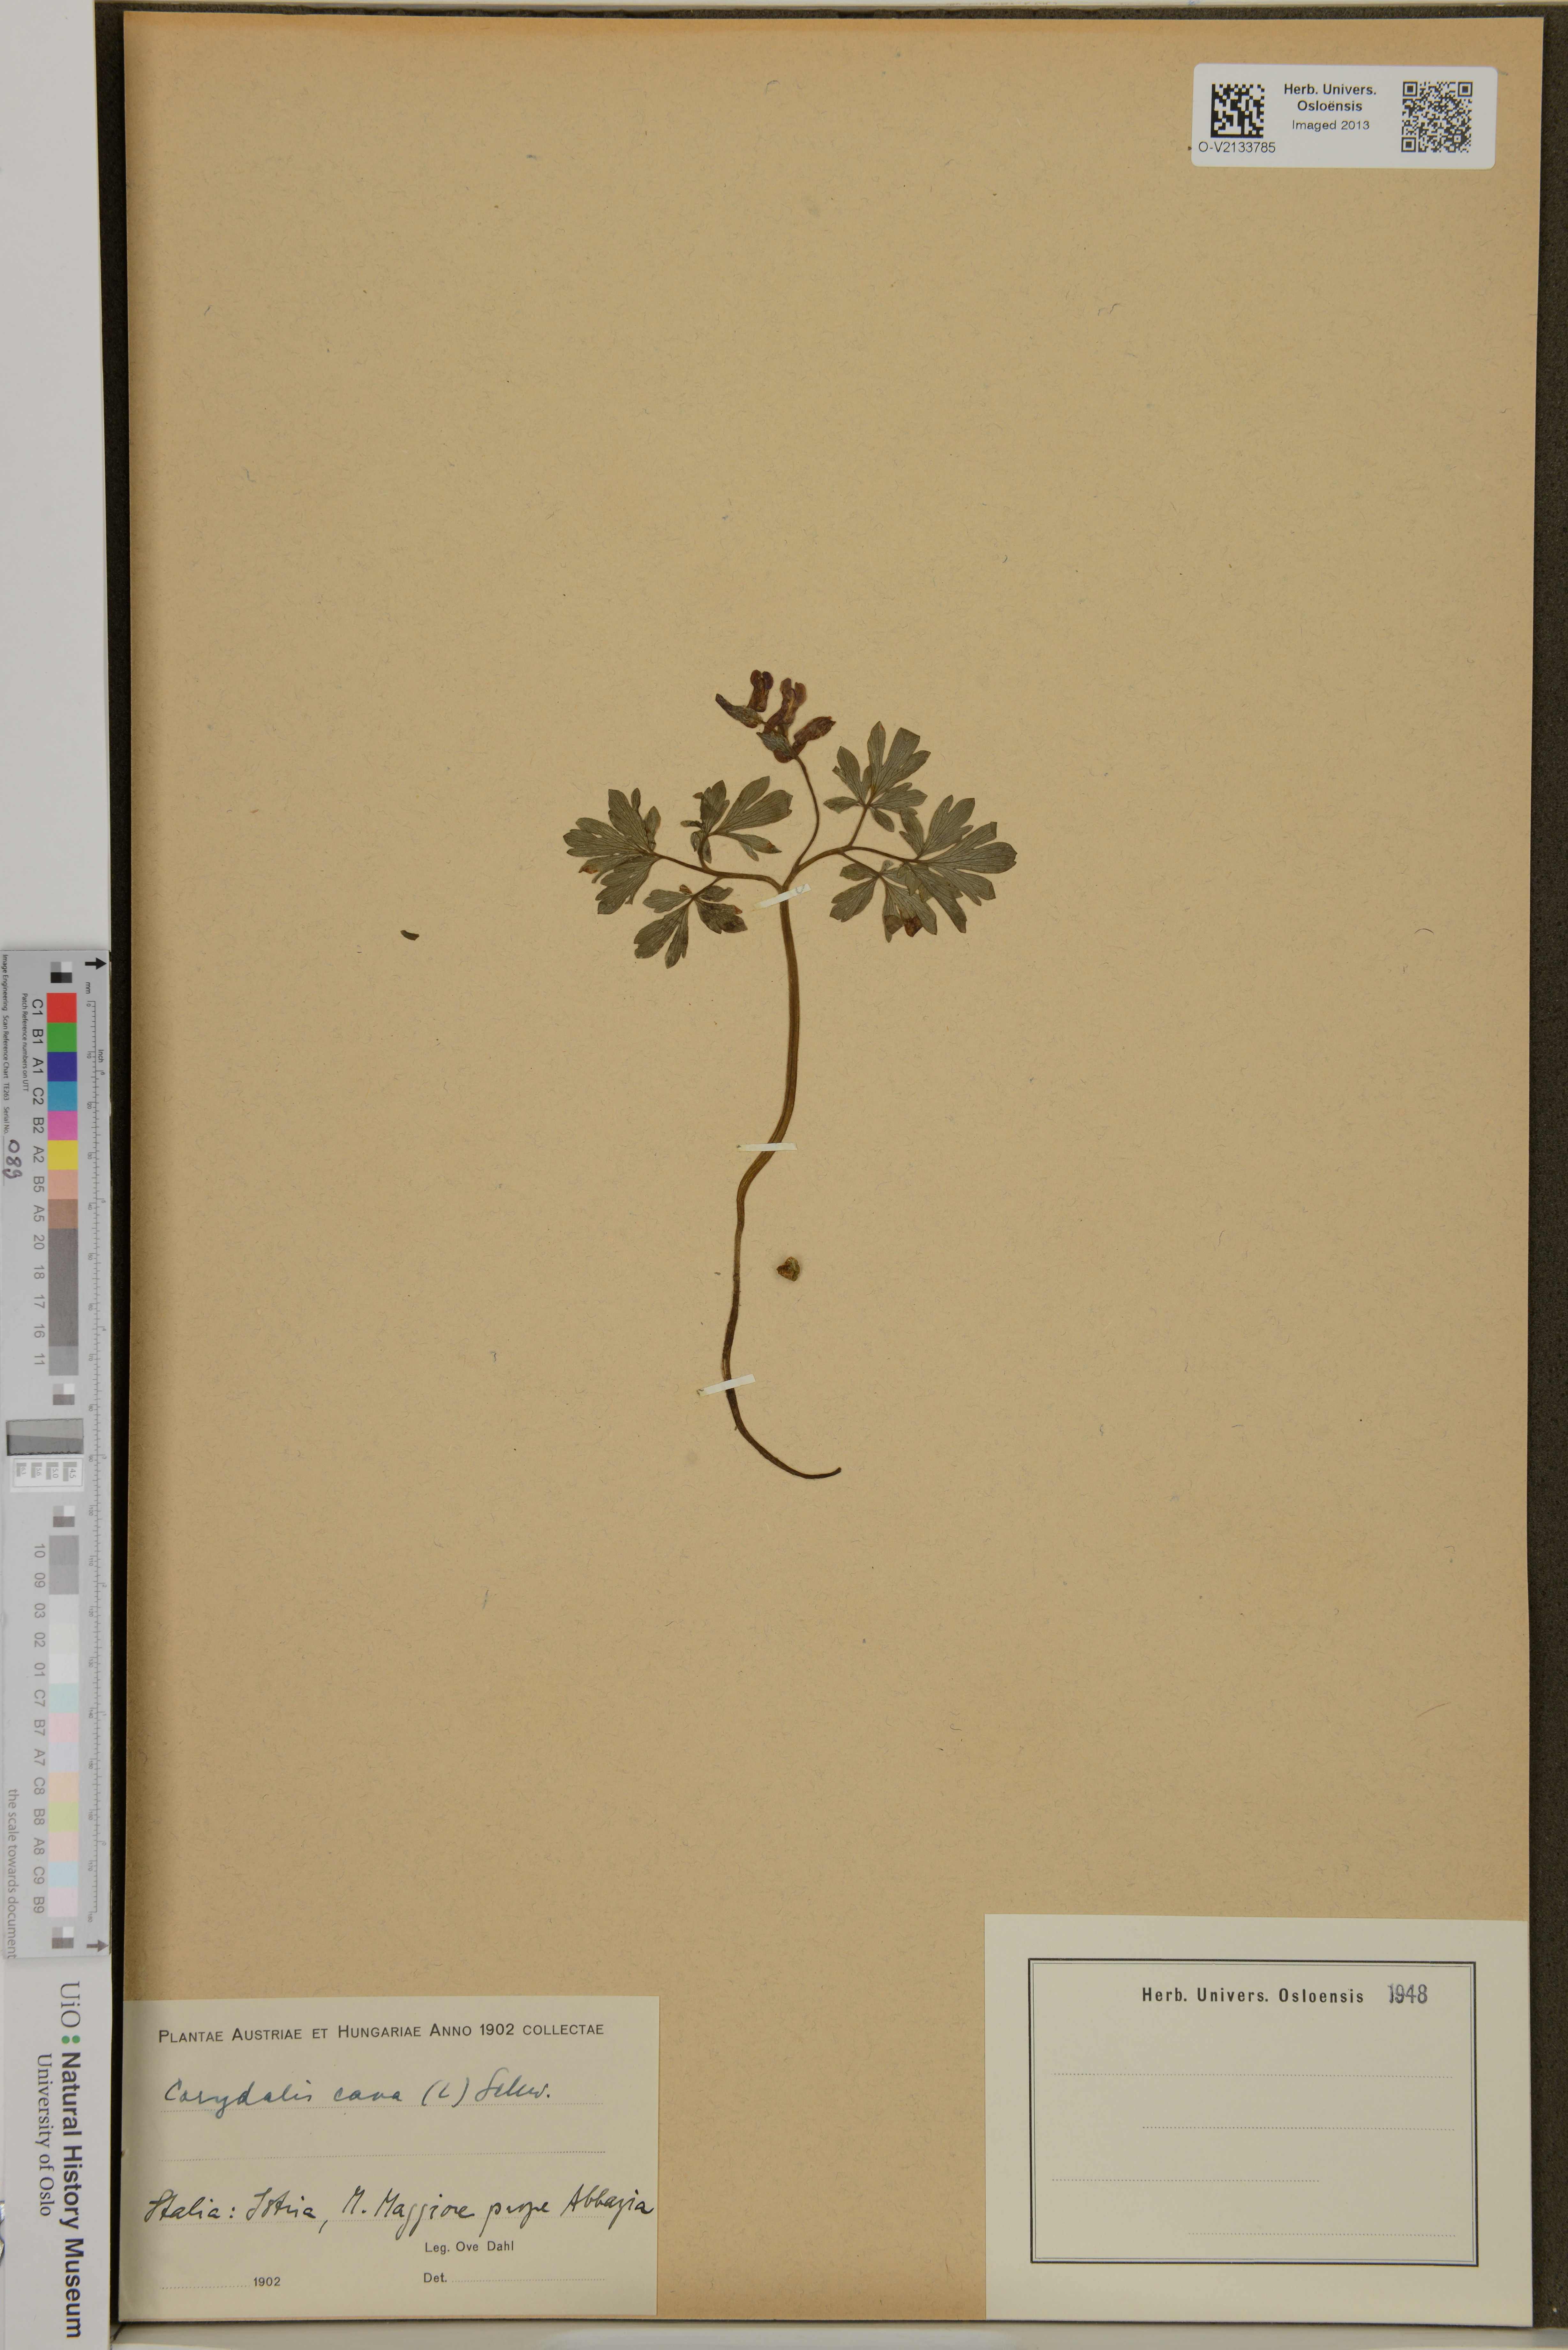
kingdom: Plantae
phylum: Tracheophyta
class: Magnoliopsida
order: Ranunculales
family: Papaveraceae
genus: Corydalis
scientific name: Corydalis cava
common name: Hollowroot
